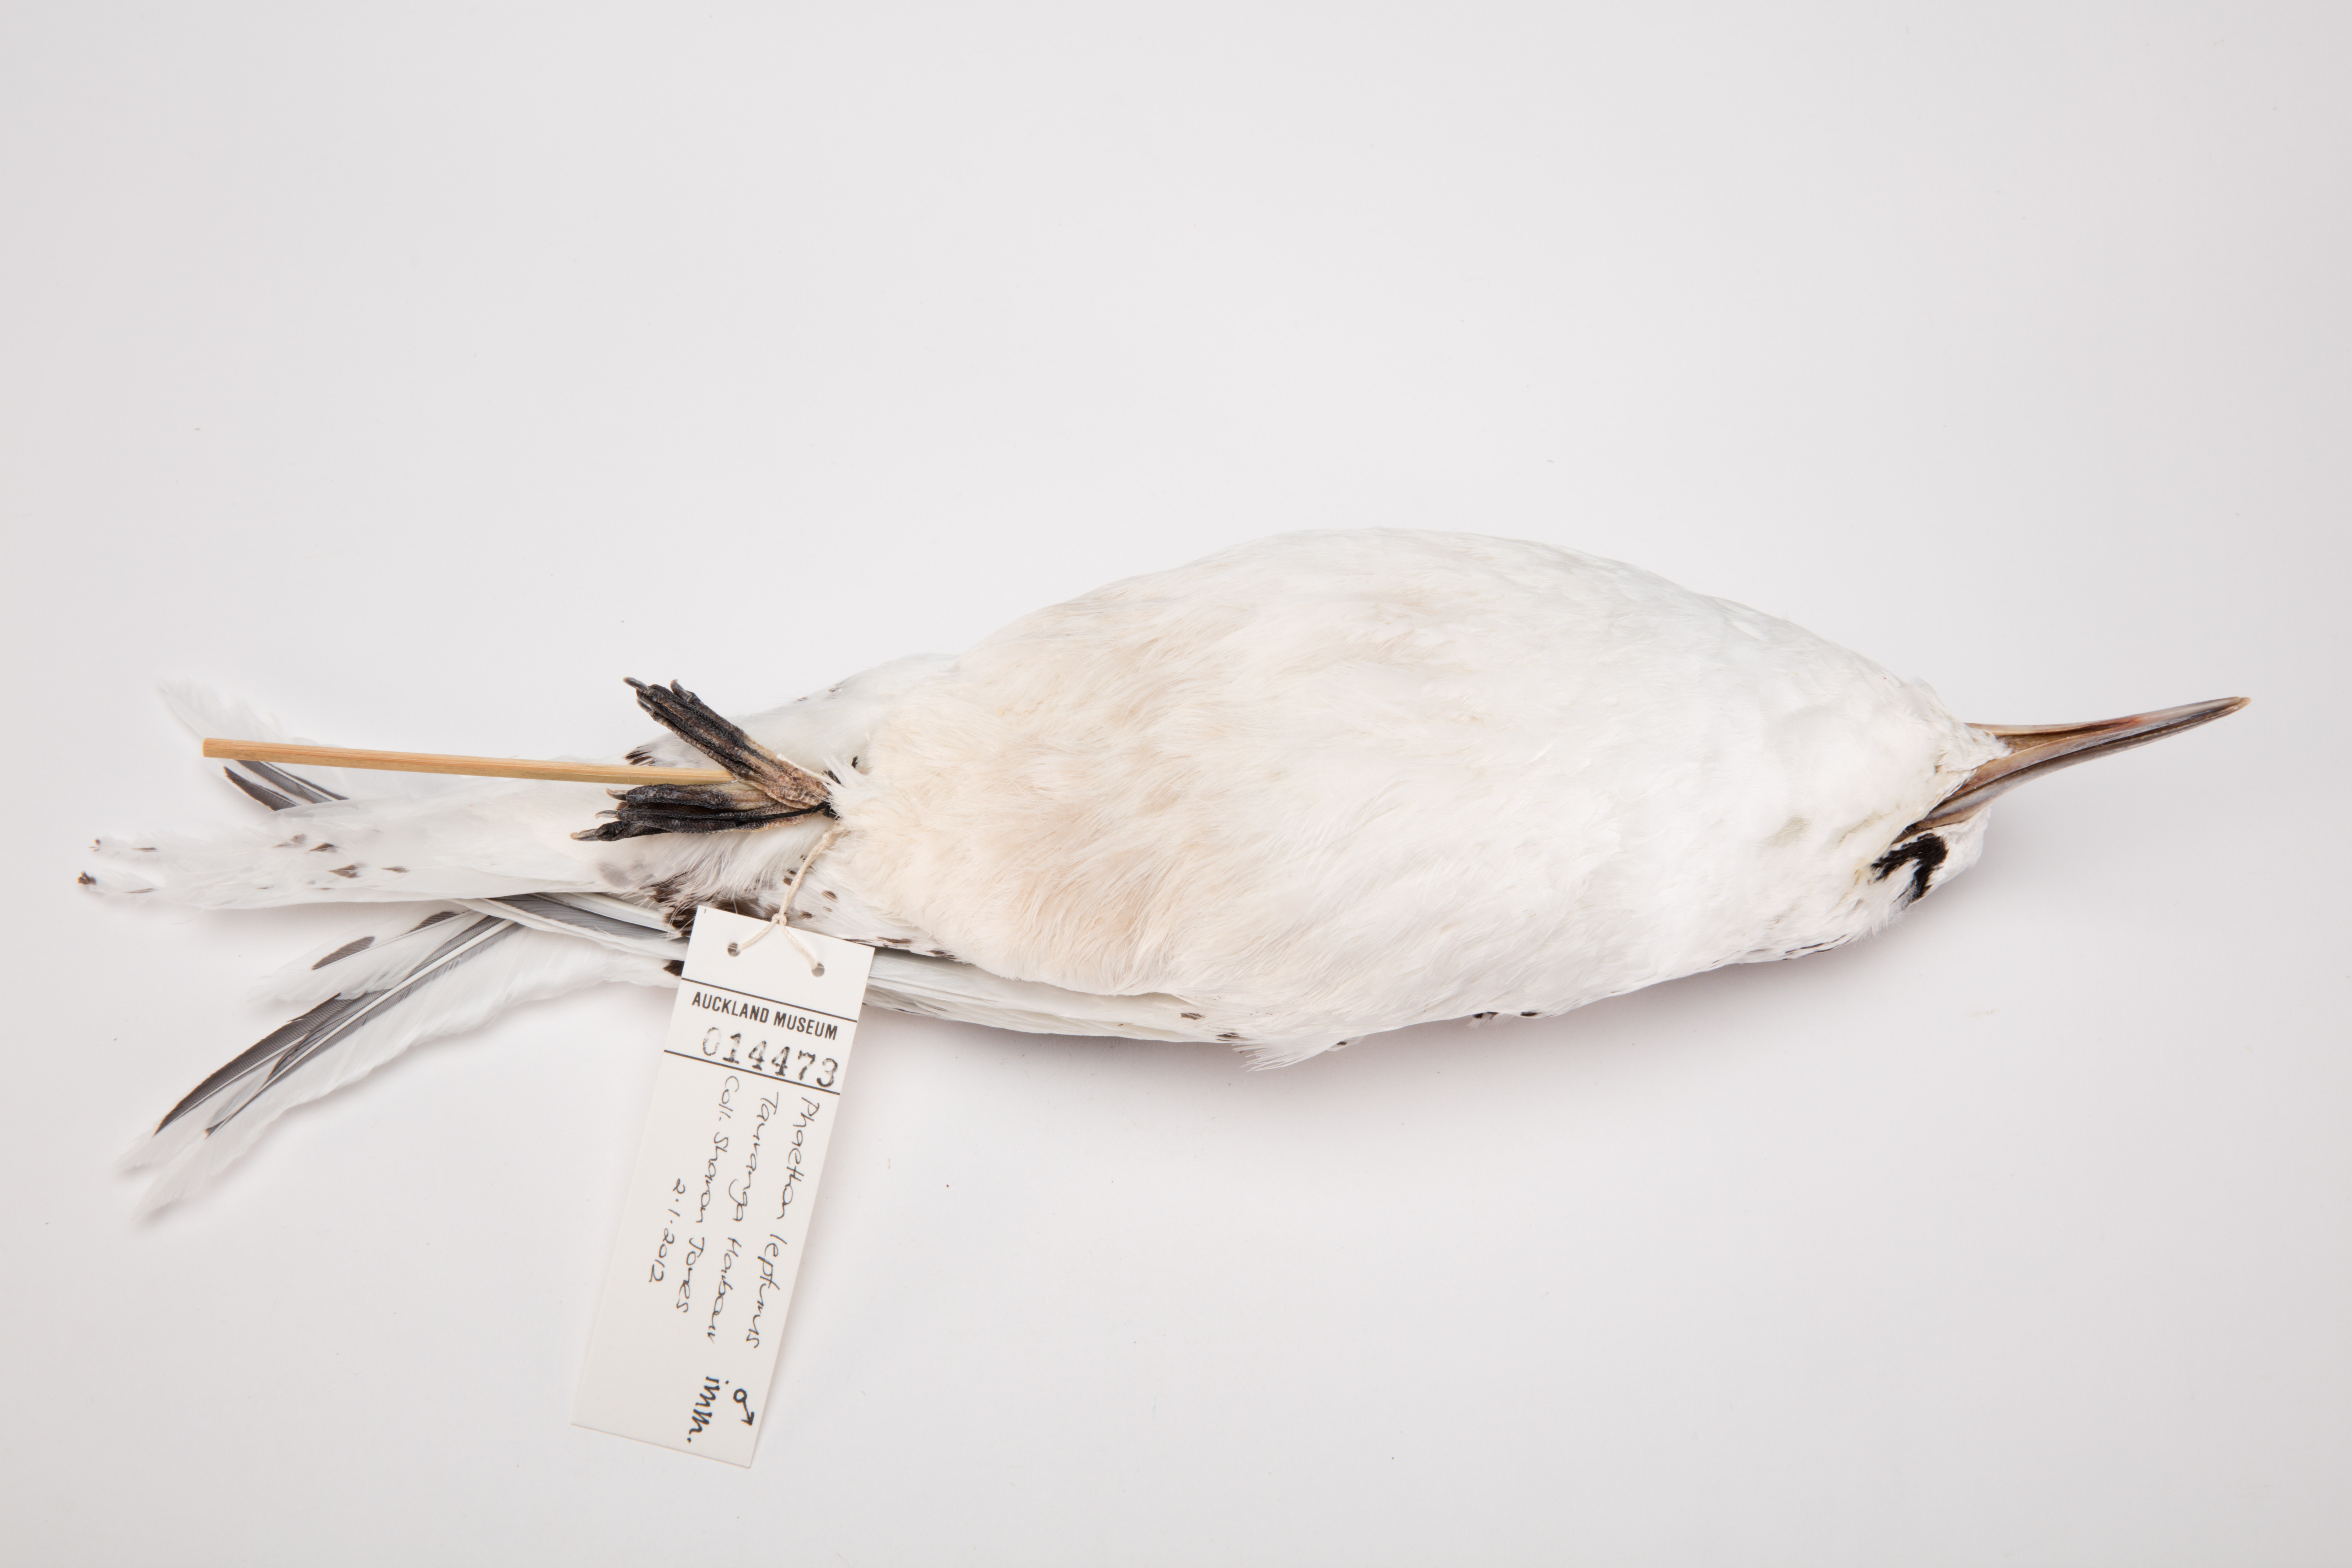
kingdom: Animalia
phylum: Chordata
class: Aves
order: Phaethontiformes
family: Phaethontidae
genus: Phaethon
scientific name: Phaethon lepturus
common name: White-tailed tropicbird
